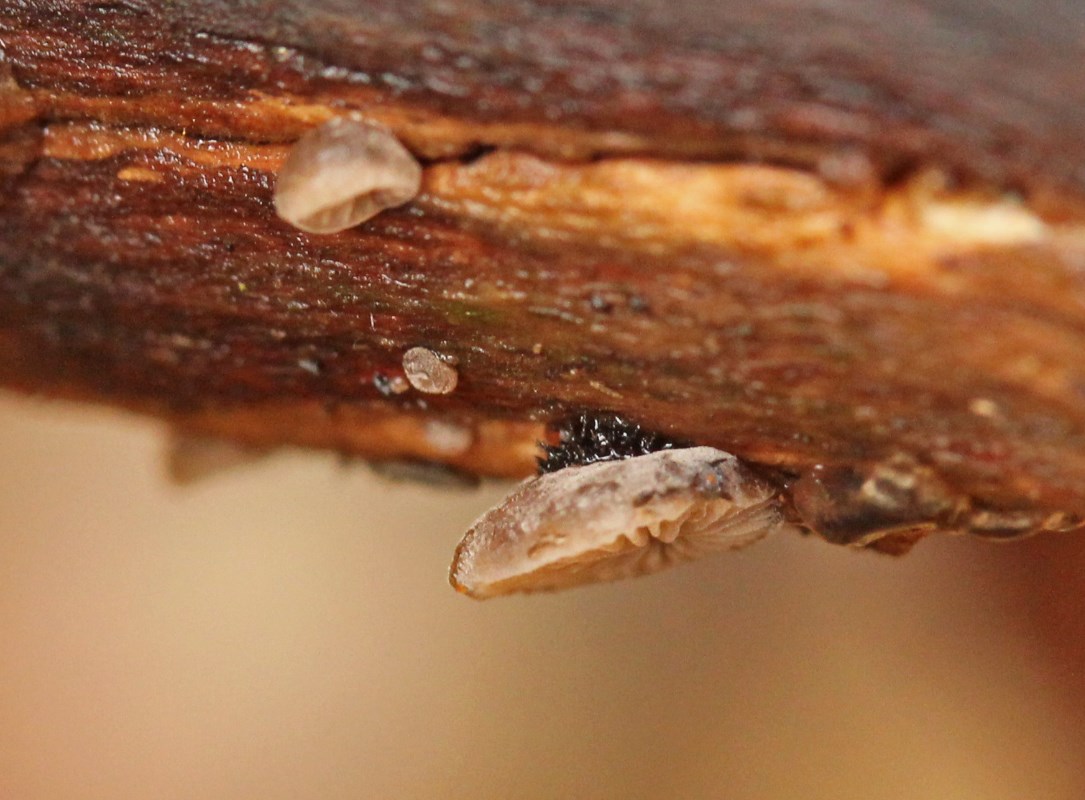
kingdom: Fungi
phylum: Basidiomycota
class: Agaricomycetes
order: Agaricales
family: Pleurotaceae
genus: Resupinatus
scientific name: Resupinatus trichotis
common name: mørkfiltet barkhat
